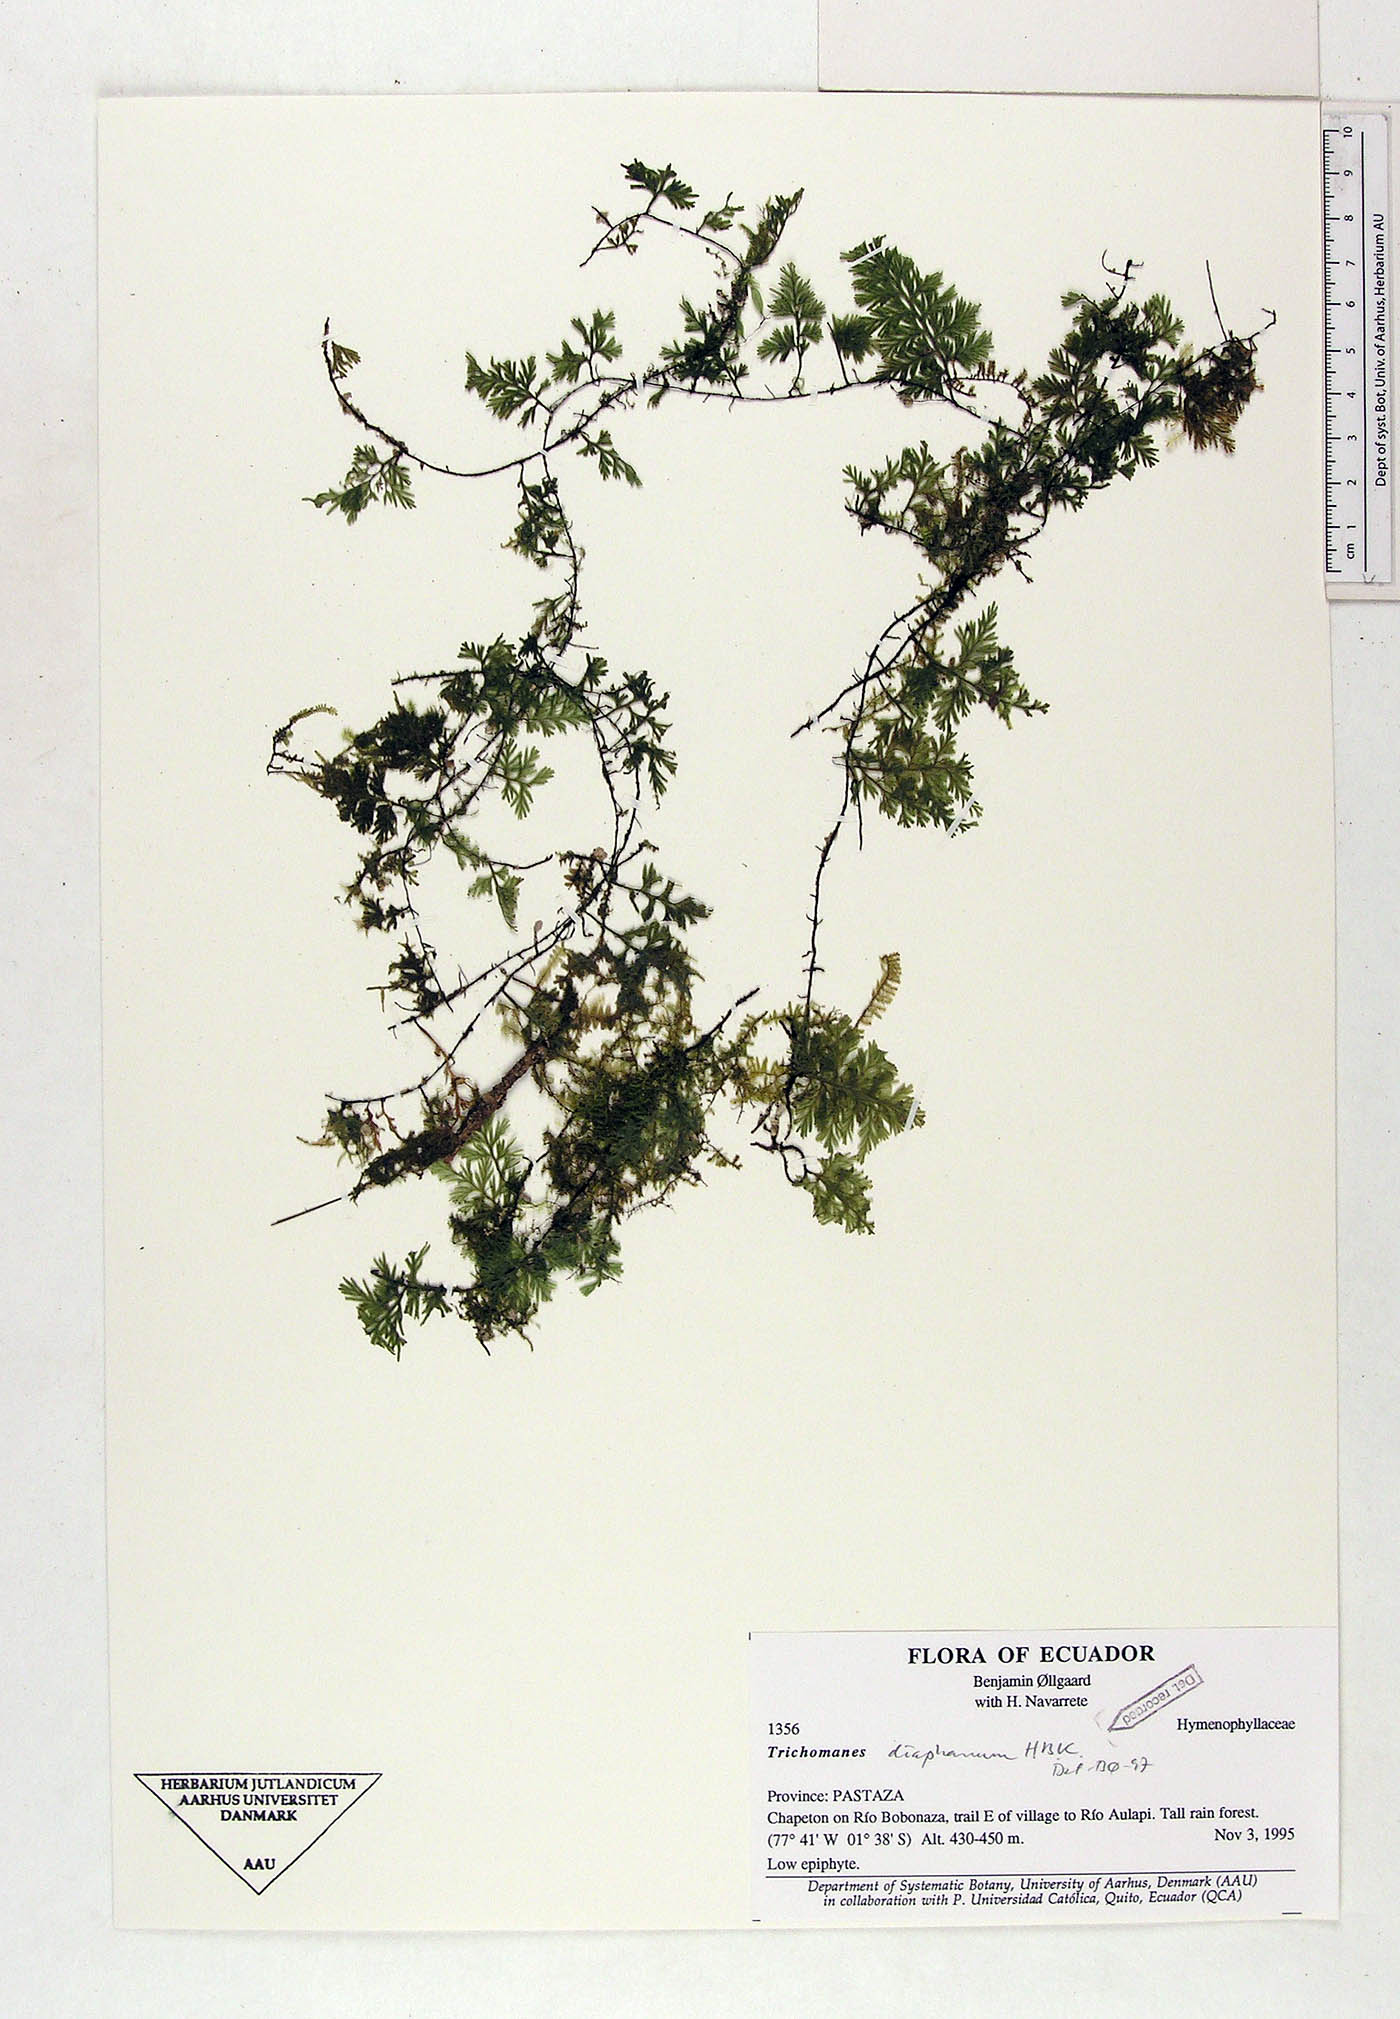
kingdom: Plantae
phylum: Tracheophyta
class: Polypodiopsida
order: Hymenophyllales
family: Hymenophyllaceae
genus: Polyphlebium
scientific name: Polyphlebium diaphanum
